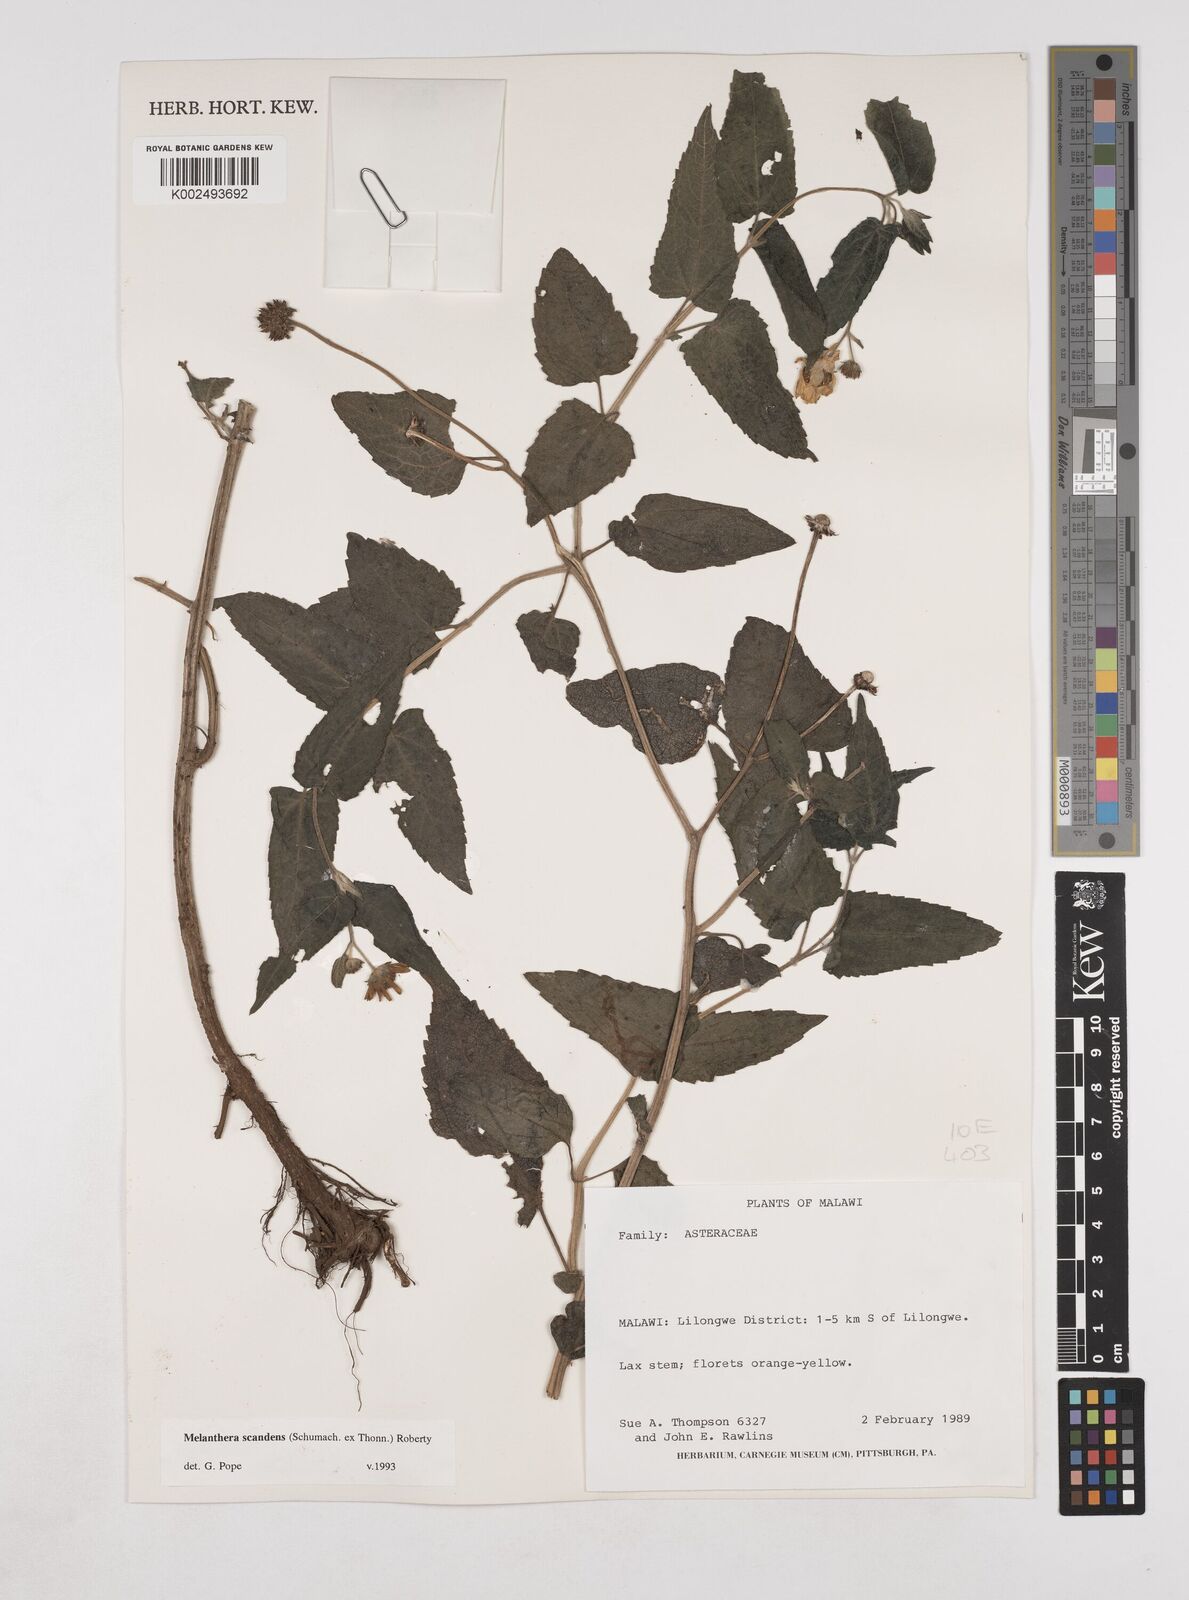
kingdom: Plantae
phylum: Tracheophyta
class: Magnoliopsida
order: Asterales
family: Asteraceae
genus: Lipotriche
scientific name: Lipotriche scandens
